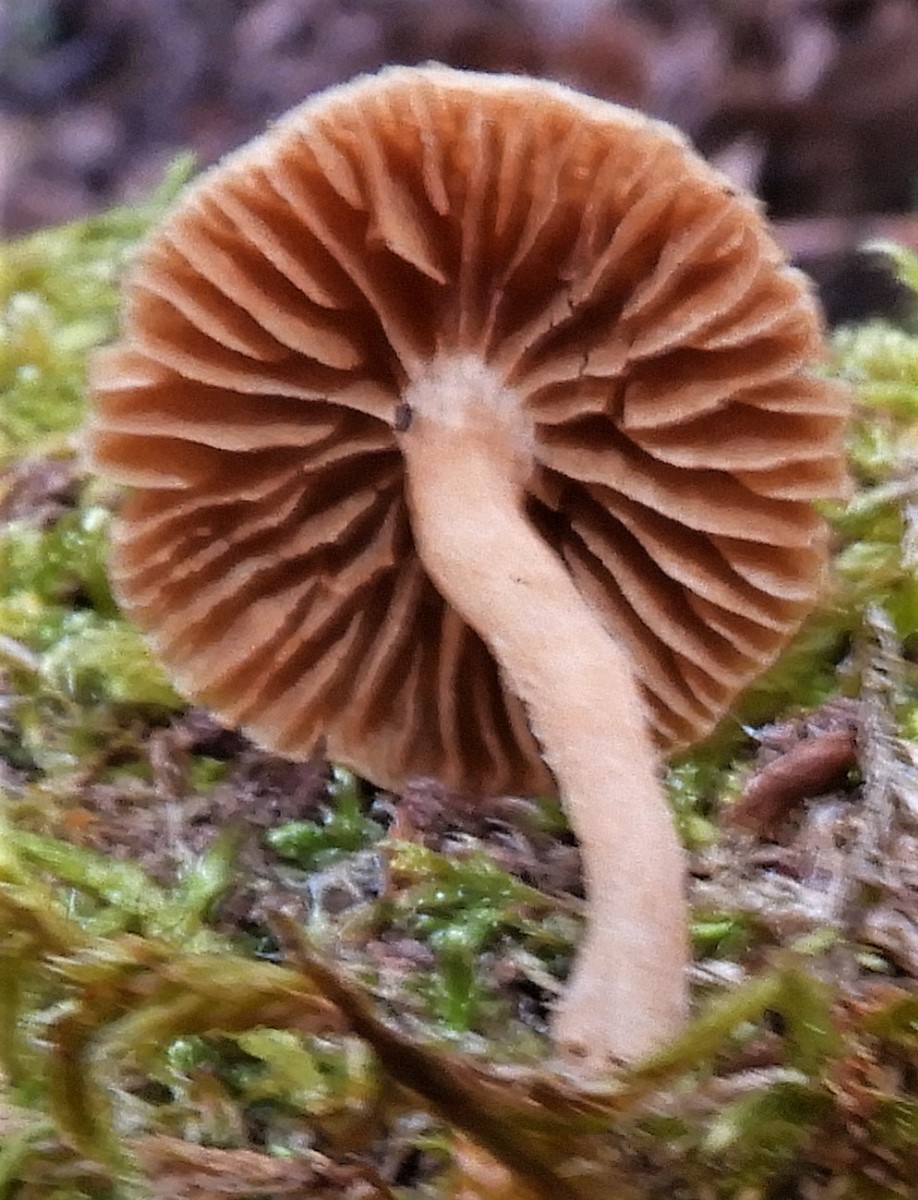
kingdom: Fungi
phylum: Basidiomycota
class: Agaricomycetes
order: Agaricales
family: Tubariaceae
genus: Tubaria
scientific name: Tubaria furfuracea
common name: kliddet fnughat
